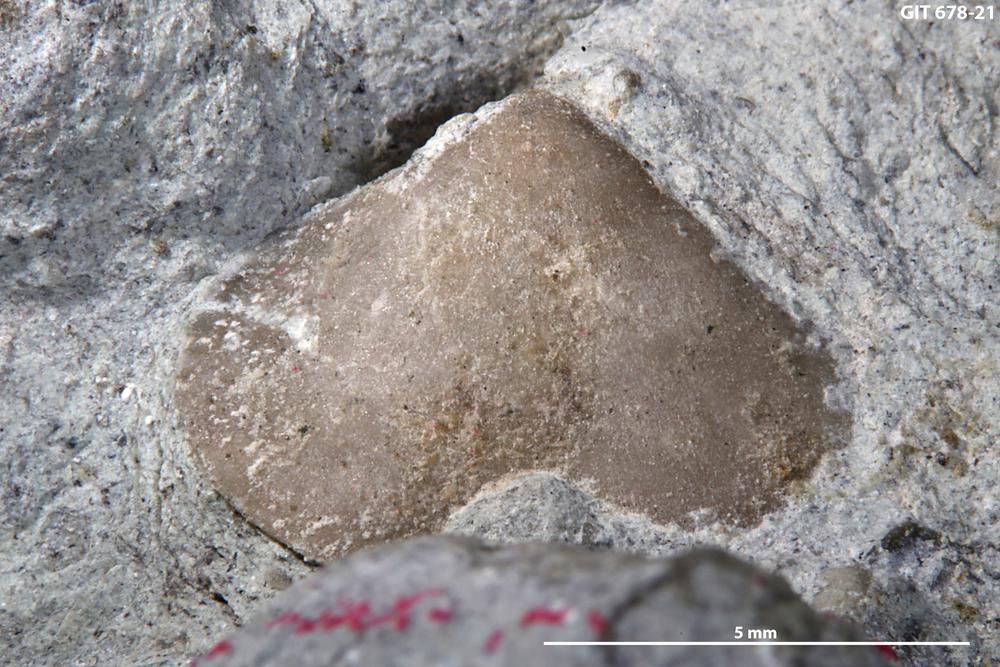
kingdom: Animalia
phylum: Brachiopoda
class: Rhynchonellata
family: Parastrophinidae
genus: Parastrophina
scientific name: Parastrophina Camerella dura
